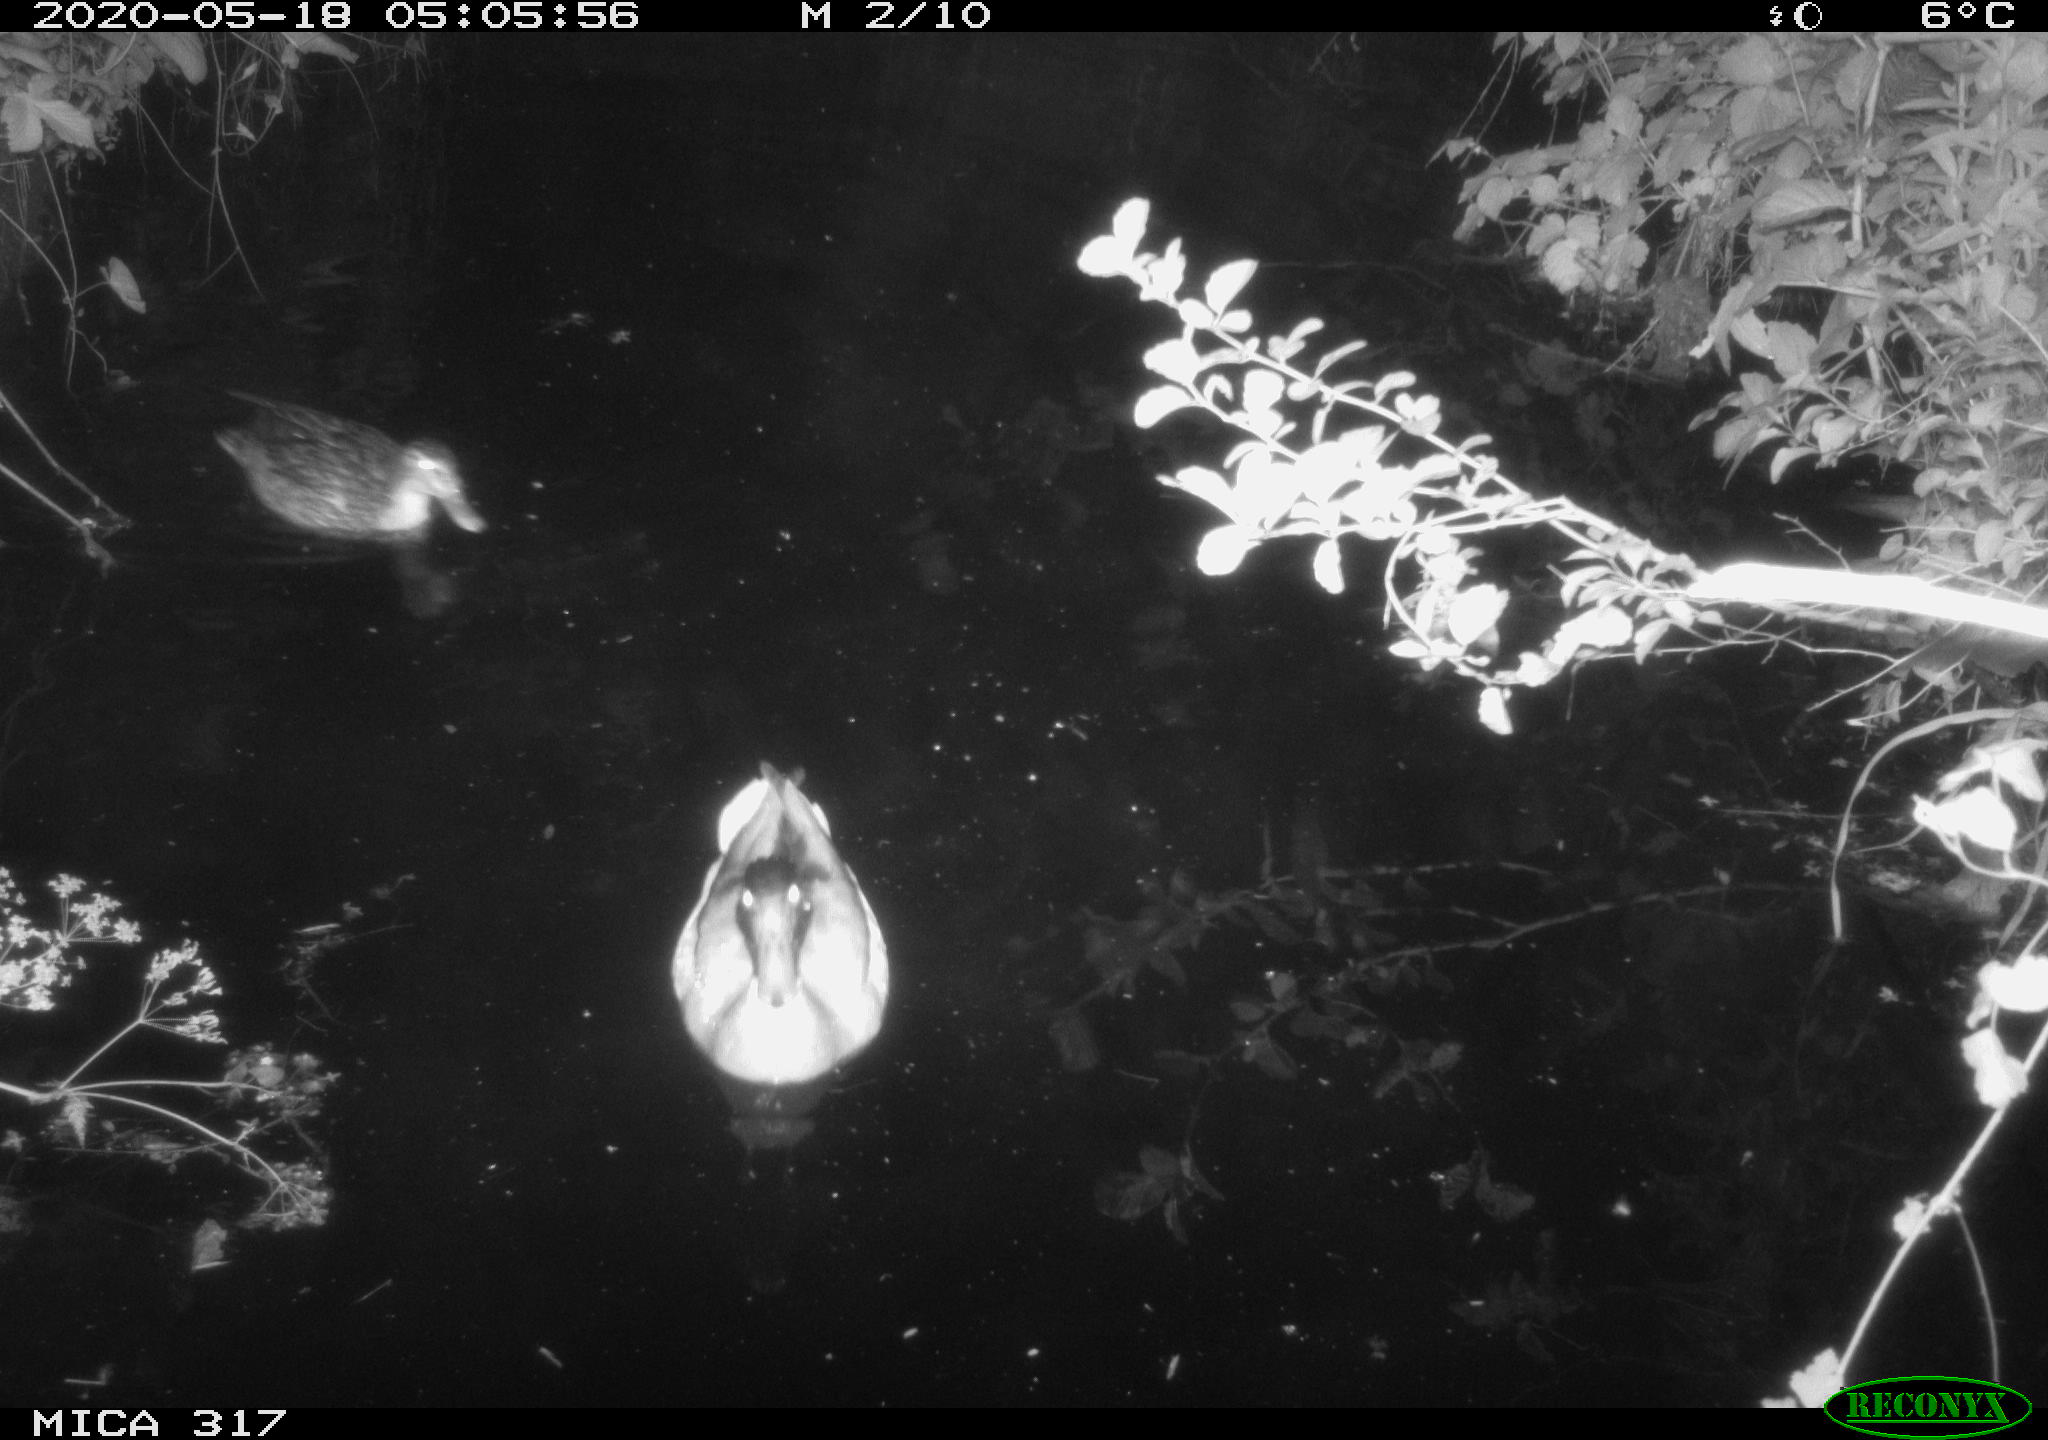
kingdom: Animalia
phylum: Chordata
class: Aves
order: Anseriformes
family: Anatidae
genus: Anas
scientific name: Anas platyrhynchos
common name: Mallard
